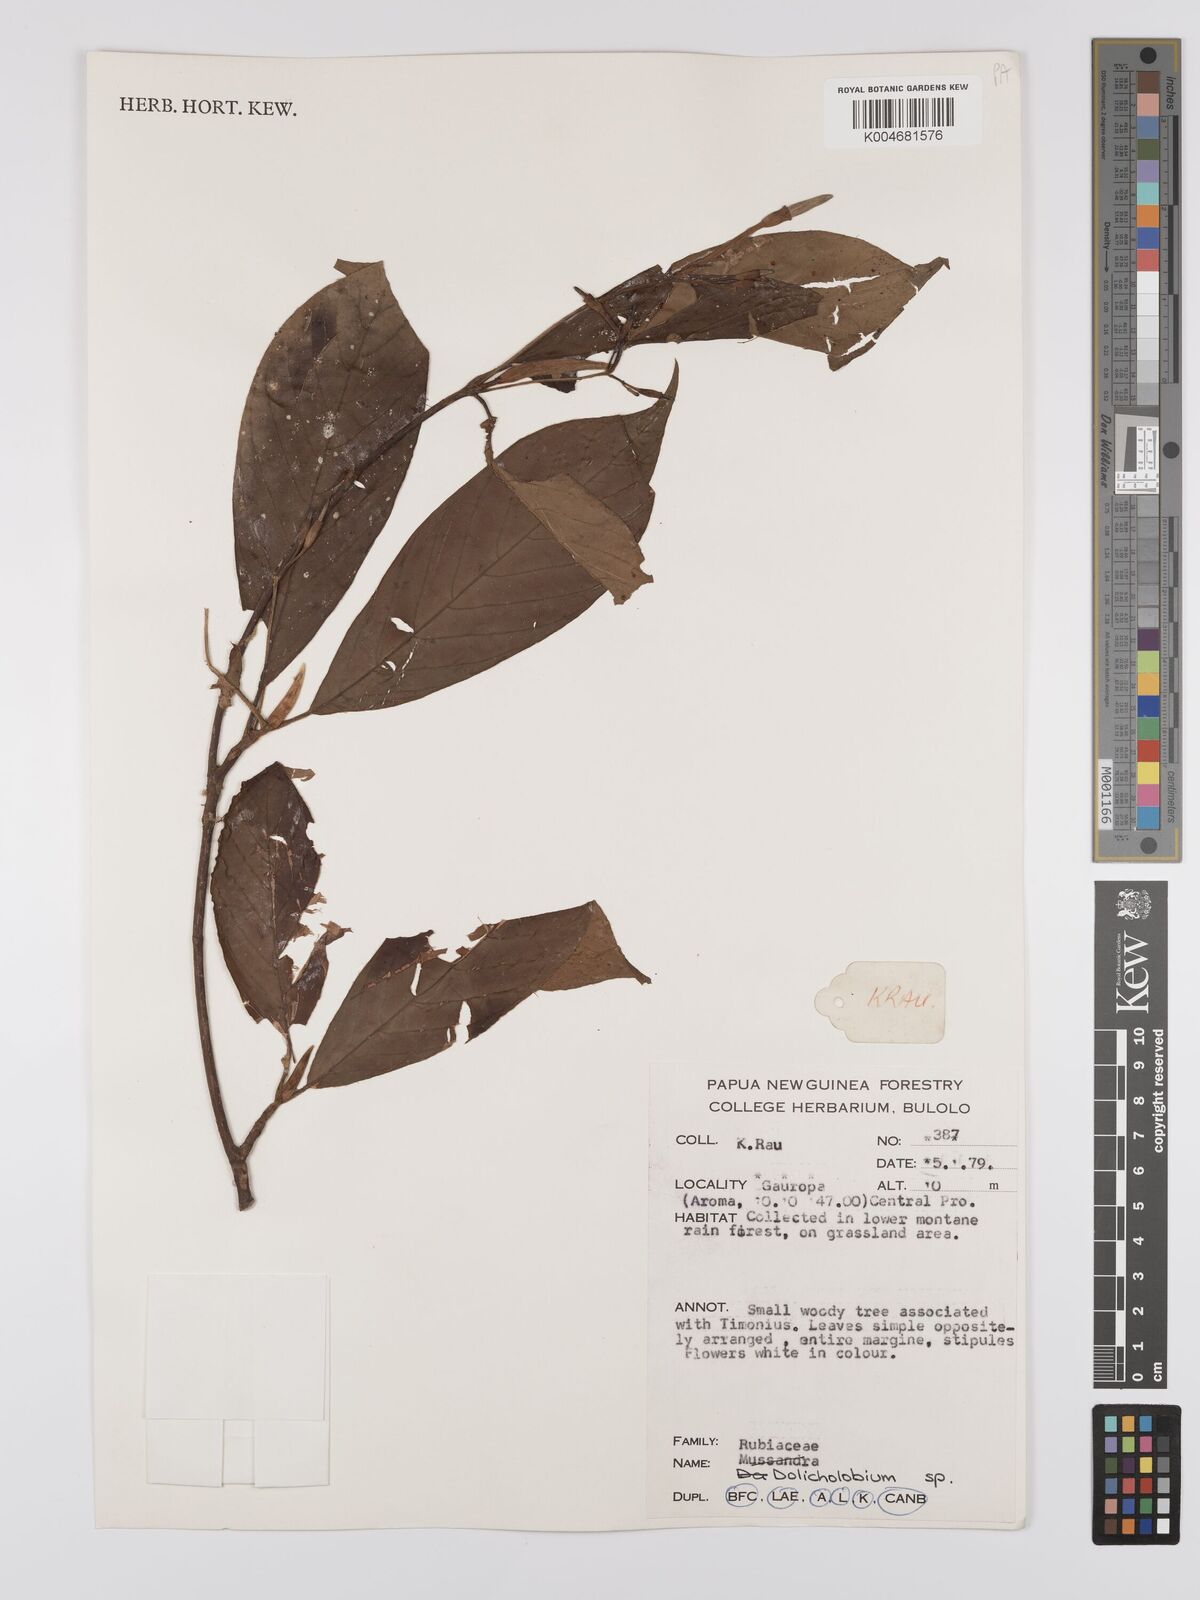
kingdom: Plantae
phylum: Tracheophyta
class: Magnoliopsida
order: Gentianales
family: Rubiaceae
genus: Dolicholobium
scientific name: Dolicholobium
